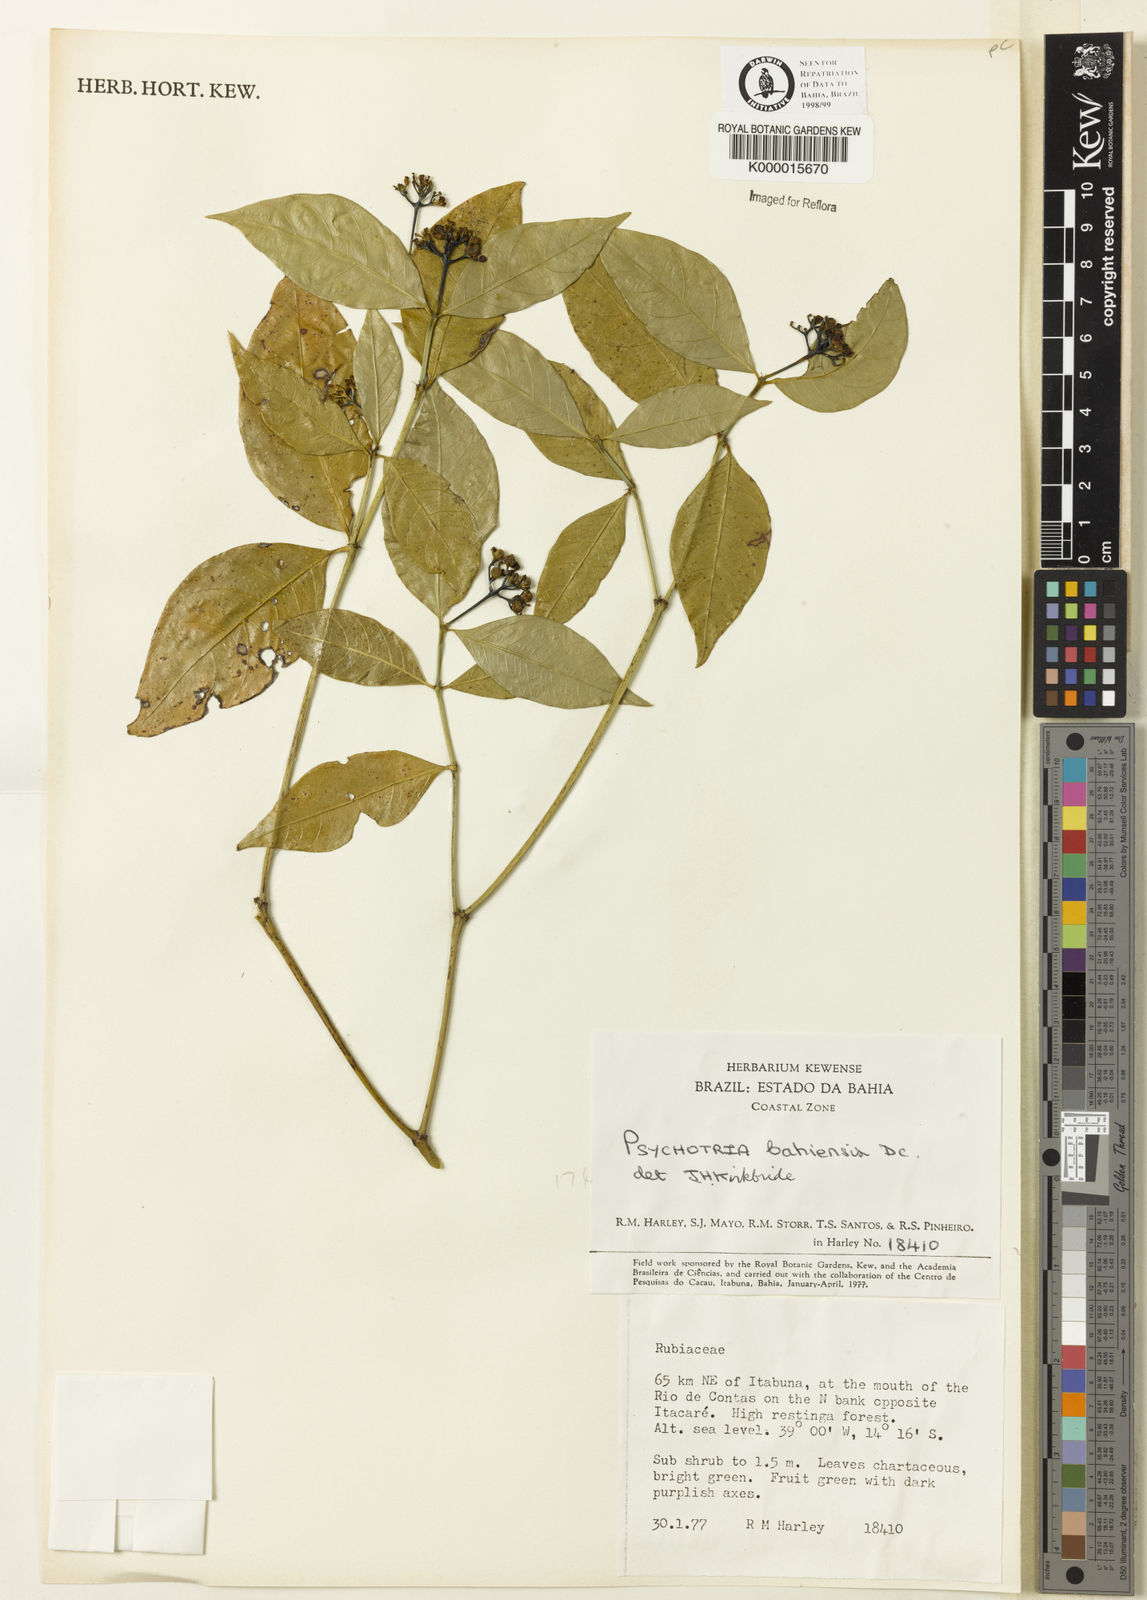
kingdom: Plantae
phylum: Tracheophyta
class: Magnoliopsida
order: Gentianales
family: Rubiaceae
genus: Psychotria
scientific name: Psychotria bahiensis
